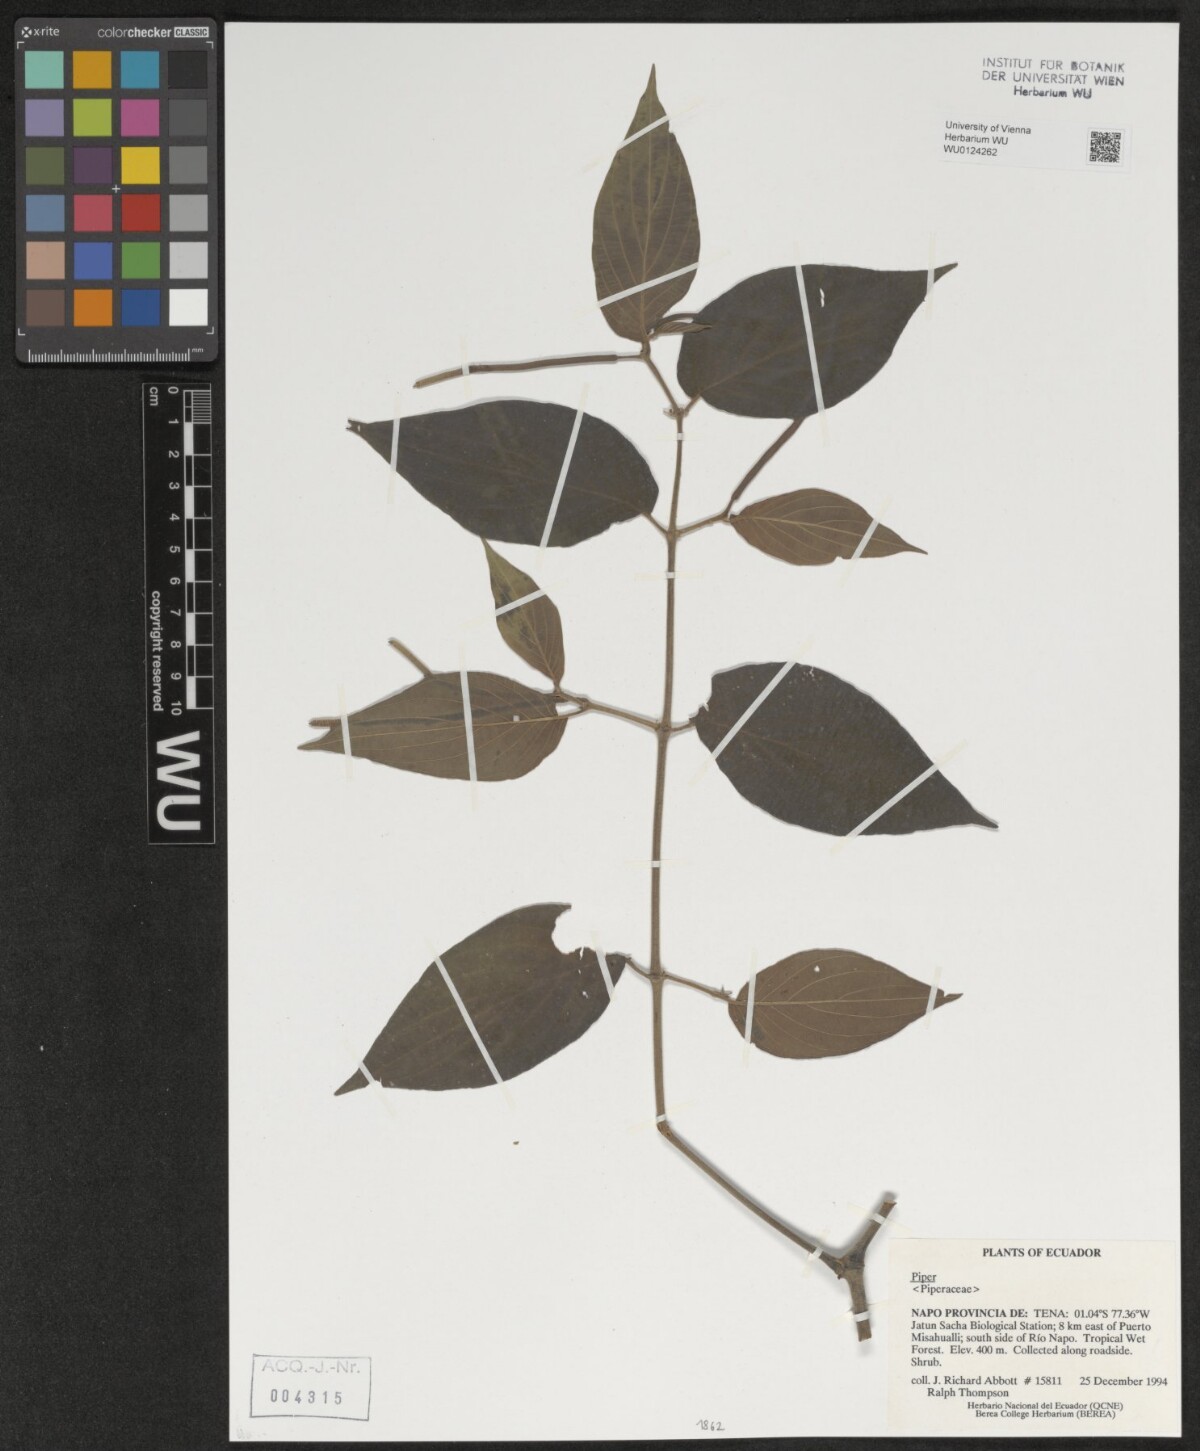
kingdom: Plantae
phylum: Tracheophyta
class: Magnoliopsida
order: Piperales
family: Piperaceae
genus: Piper
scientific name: Piper
